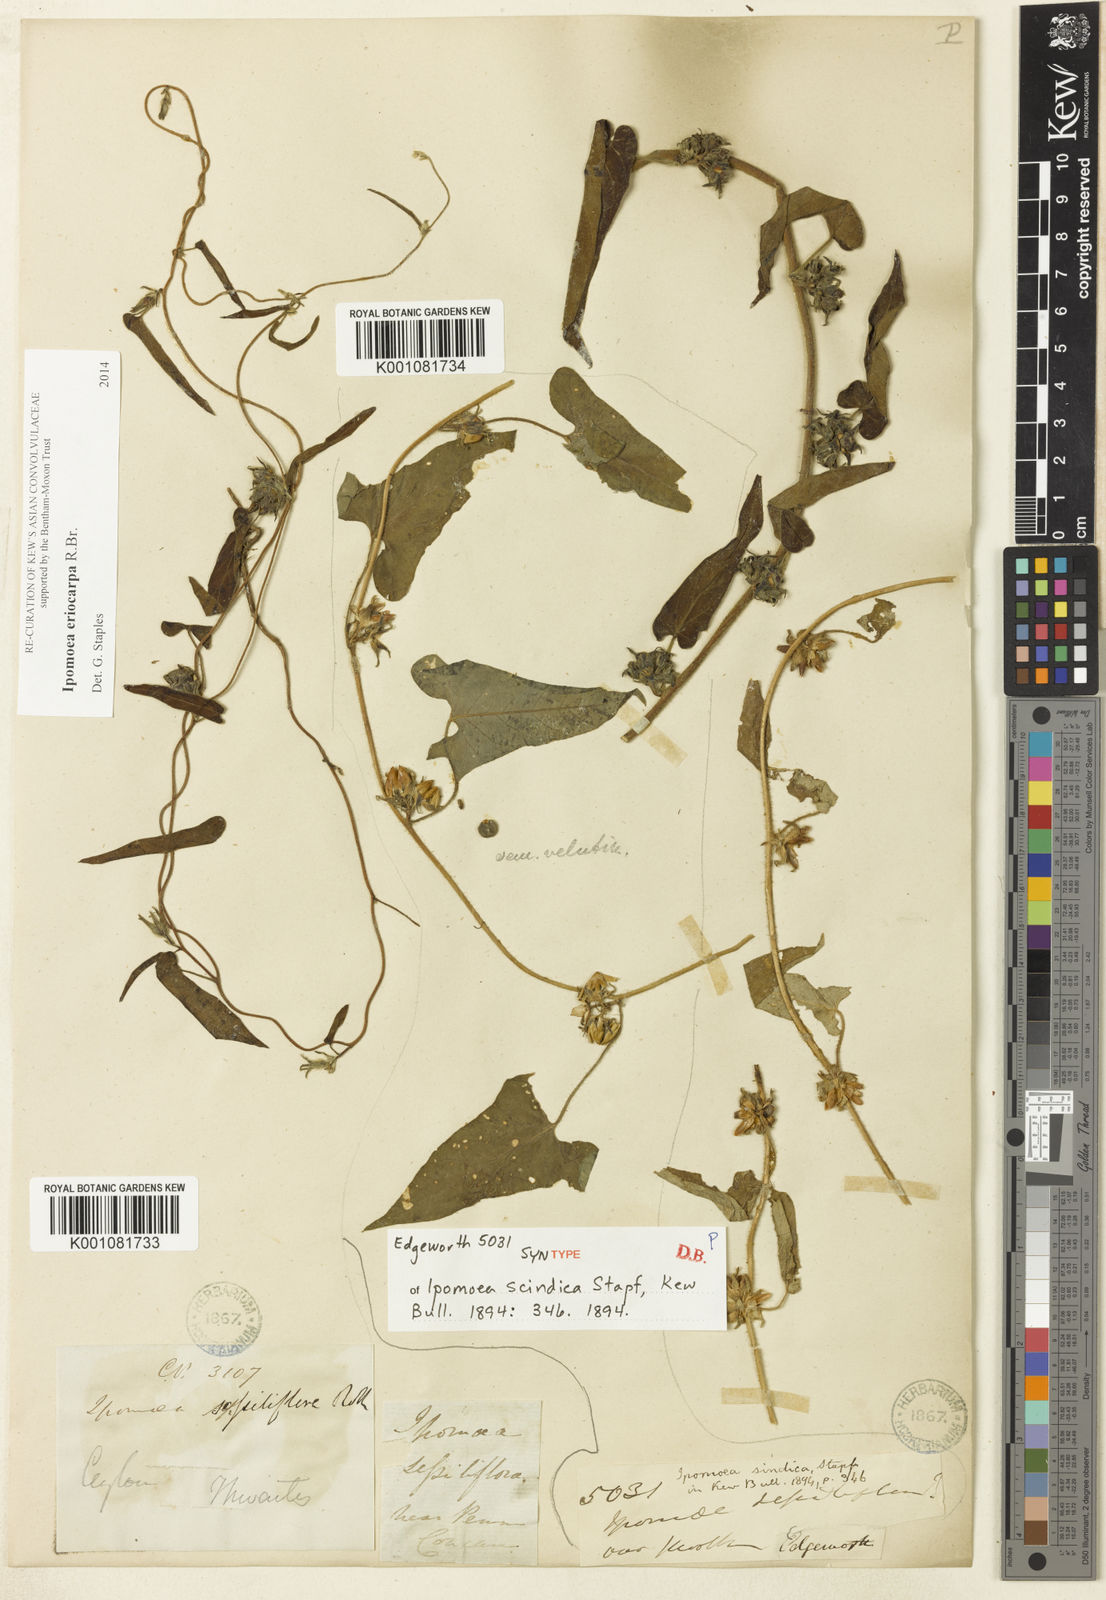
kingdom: Plantae
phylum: Tracheophyta
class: Magnoliopsida
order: Solanales
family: Convolvulaceae
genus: Ipomoea
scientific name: Ipomoea eriocarpa
